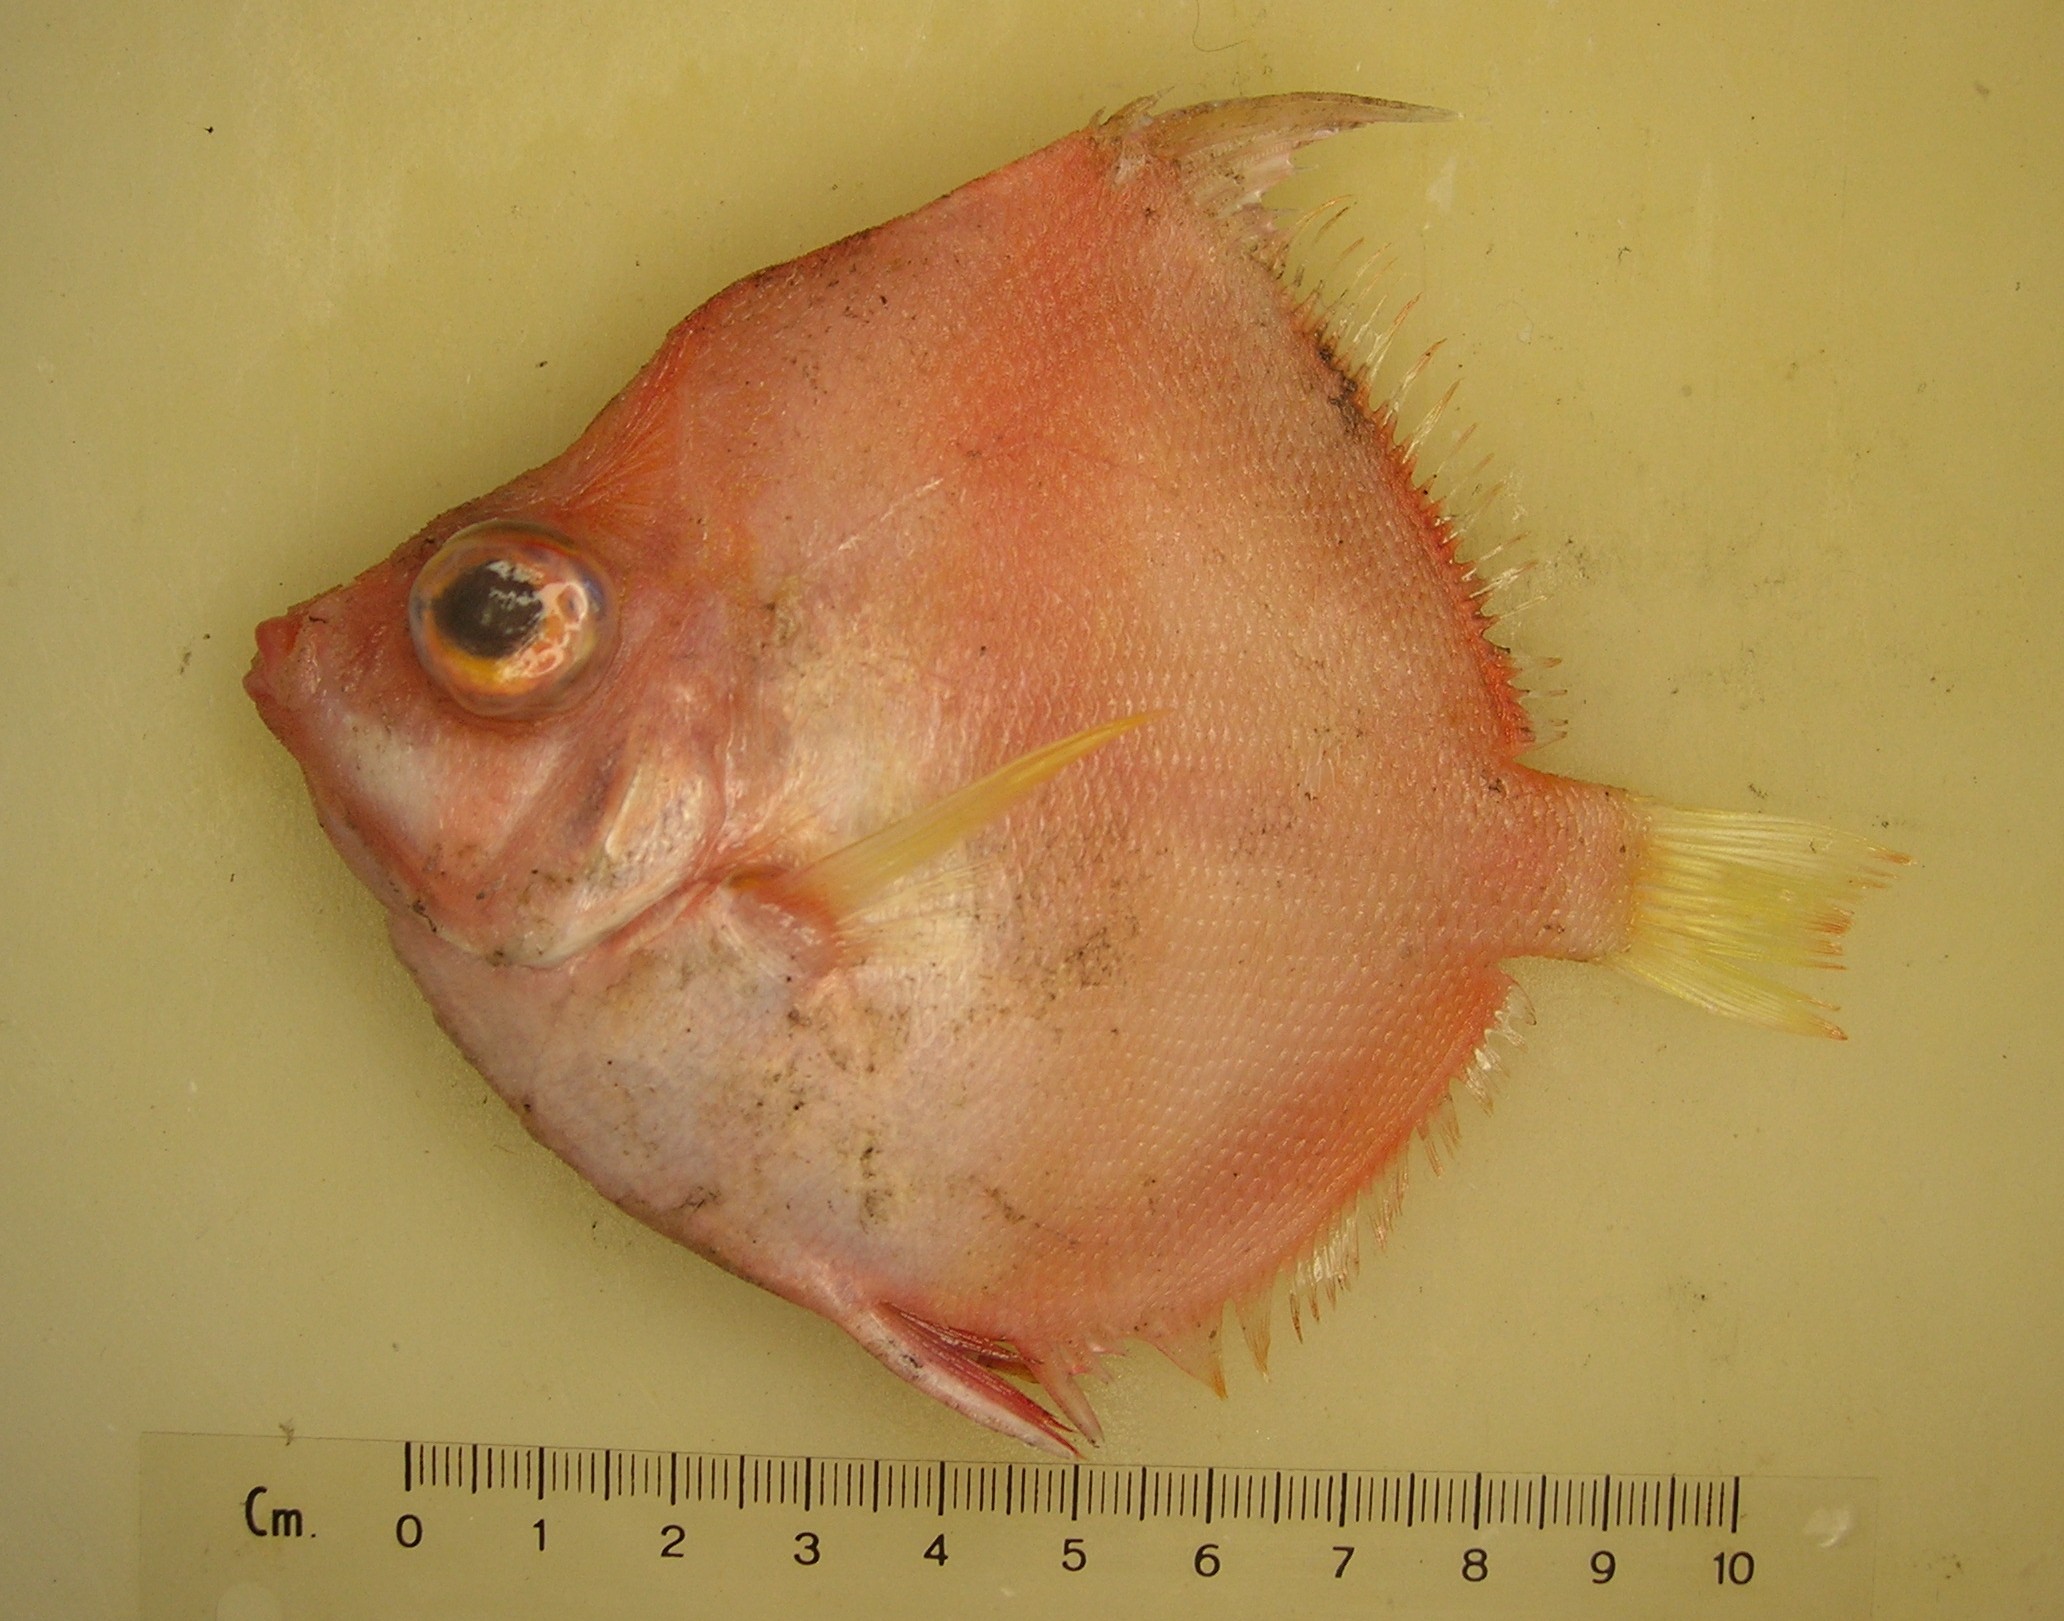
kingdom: Animalia
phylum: Chordata
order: Perciformes
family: Caproidae
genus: Antigonia
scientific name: Antigonia rubescens
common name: Indo-pacific boarfish
